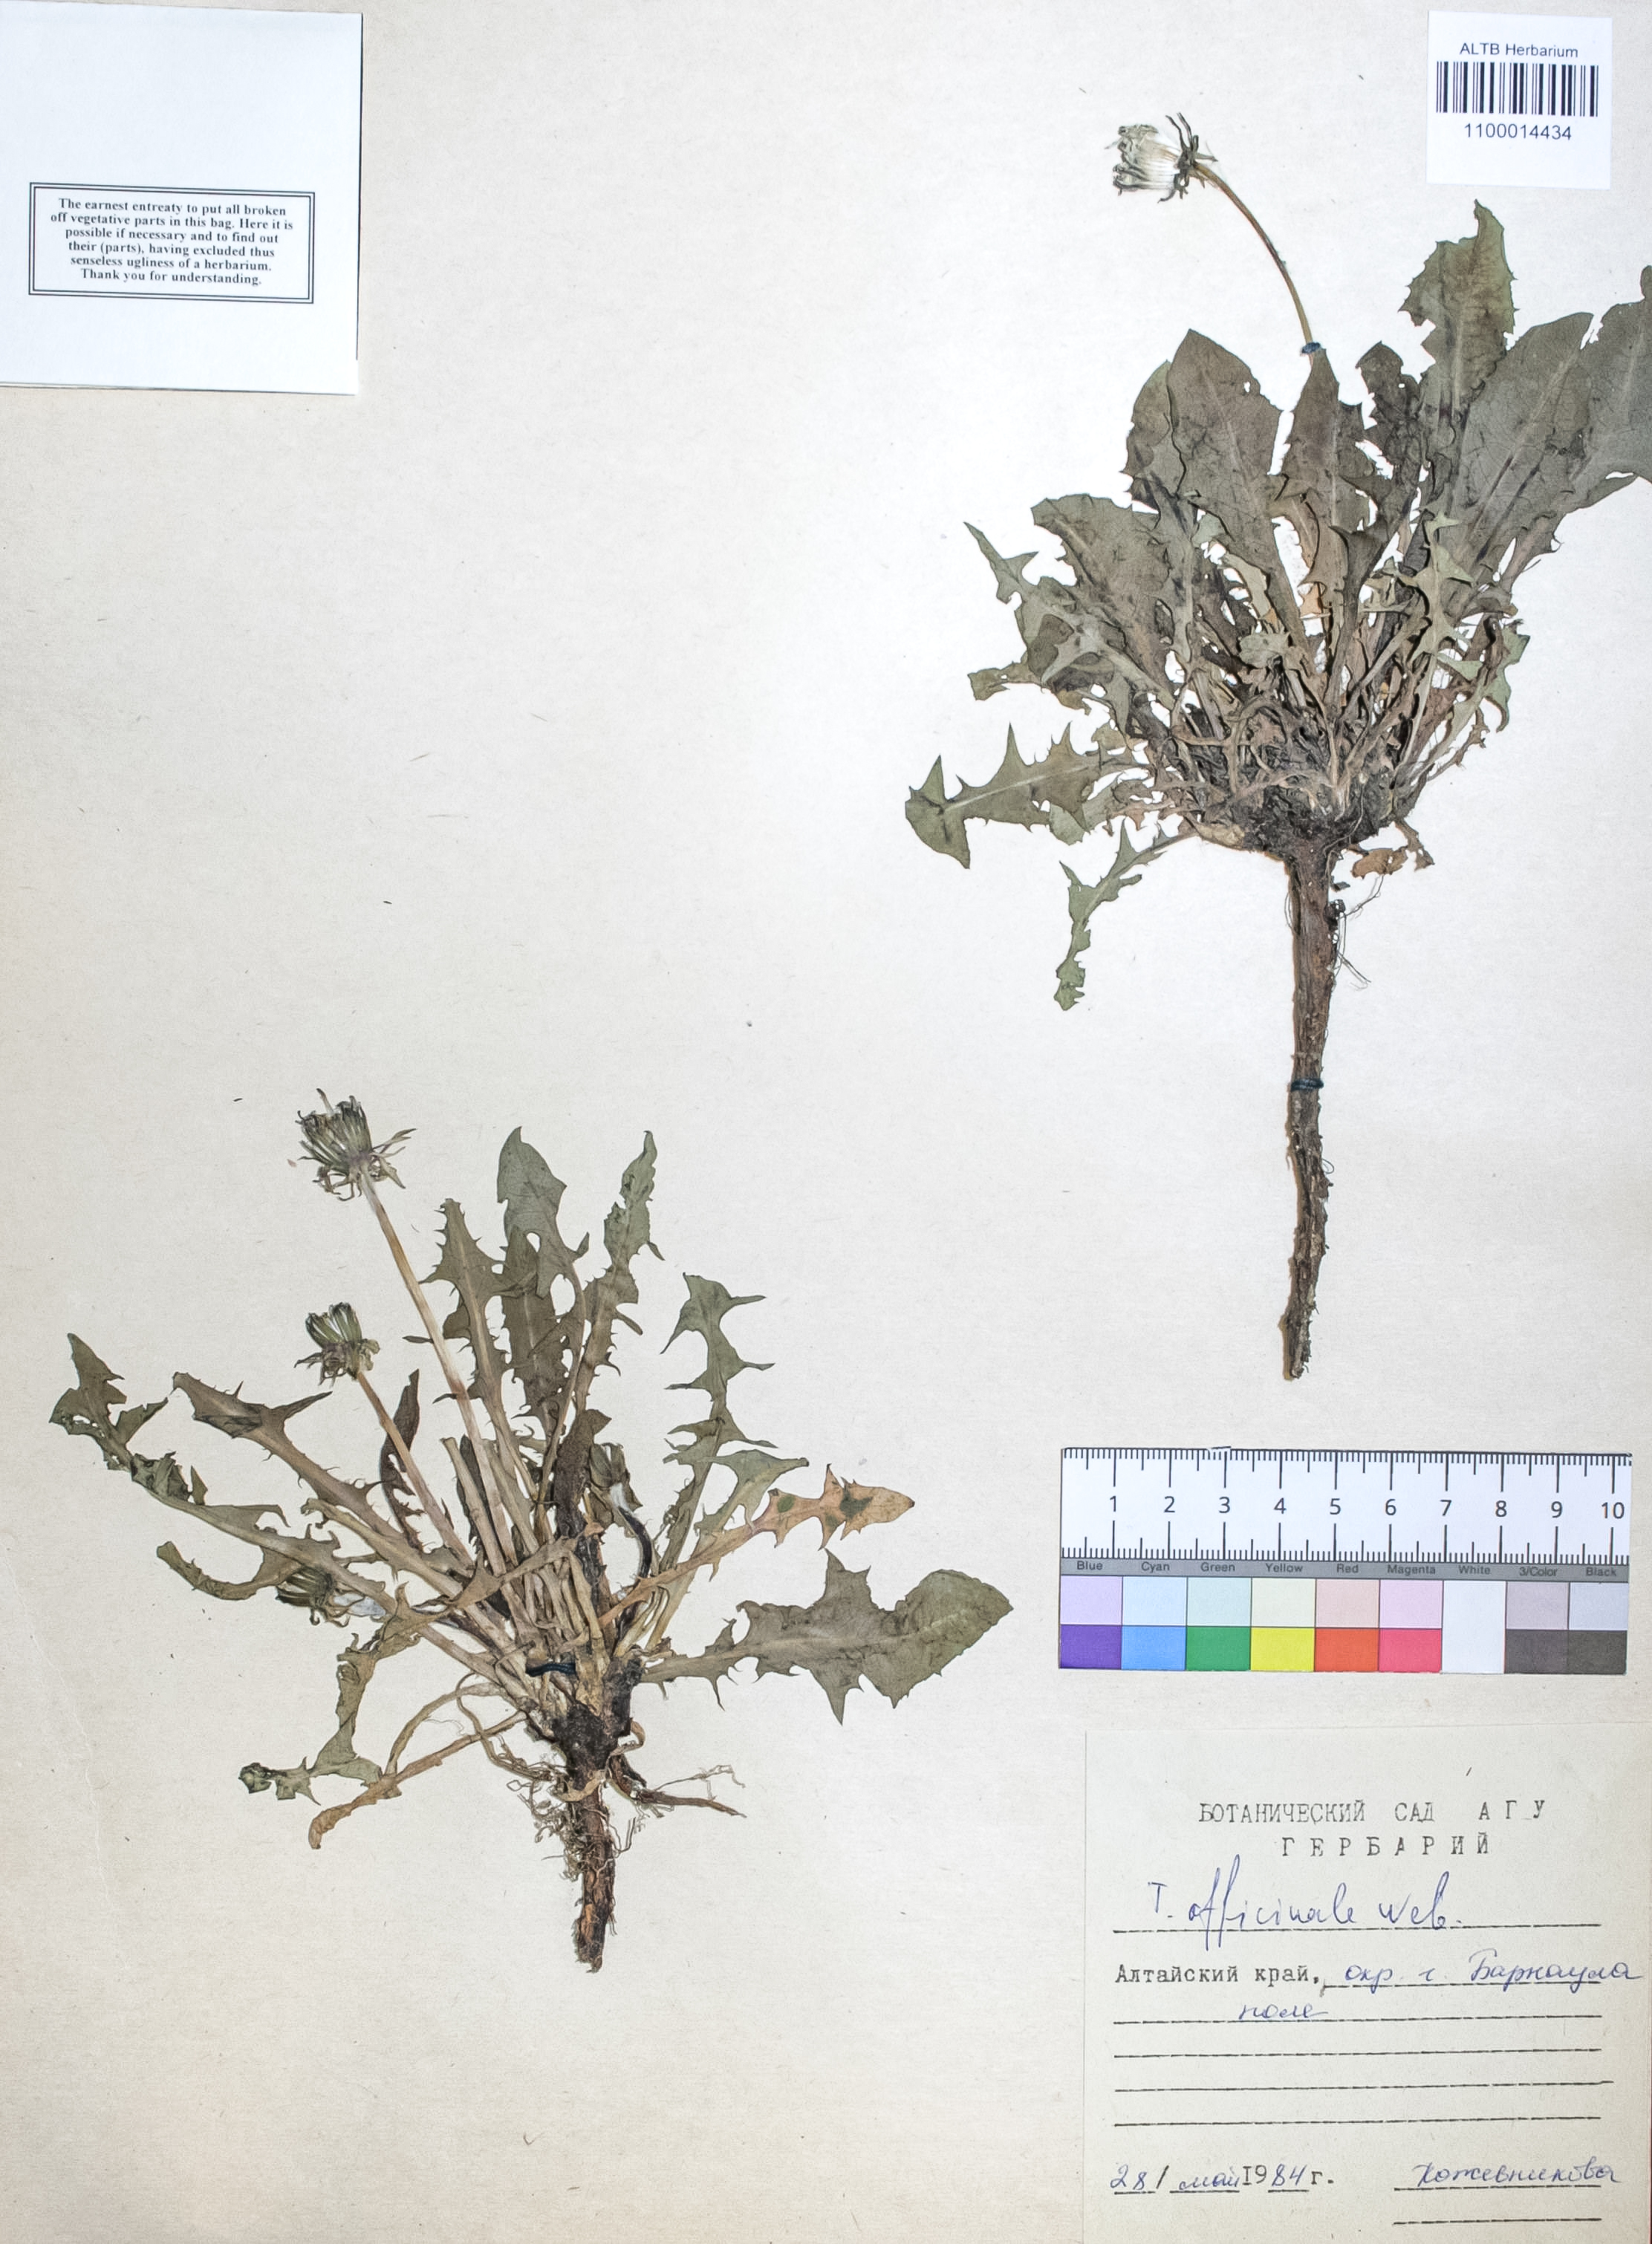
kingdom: Plantae
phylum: Tracheophyta
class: Magnoliopsida
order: Asterales
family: Asteraceae
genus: Taraxacum
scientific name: Taraxacum officinale
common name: Common dandelion
